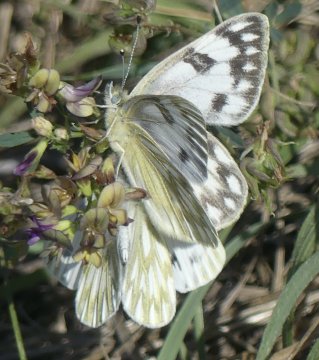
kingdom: Animalia
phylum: Arthropoda
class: Insecta
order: Lepidoptera
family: Pieridae
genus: Pontia
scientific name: Pontia occidentalis
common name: Western White
